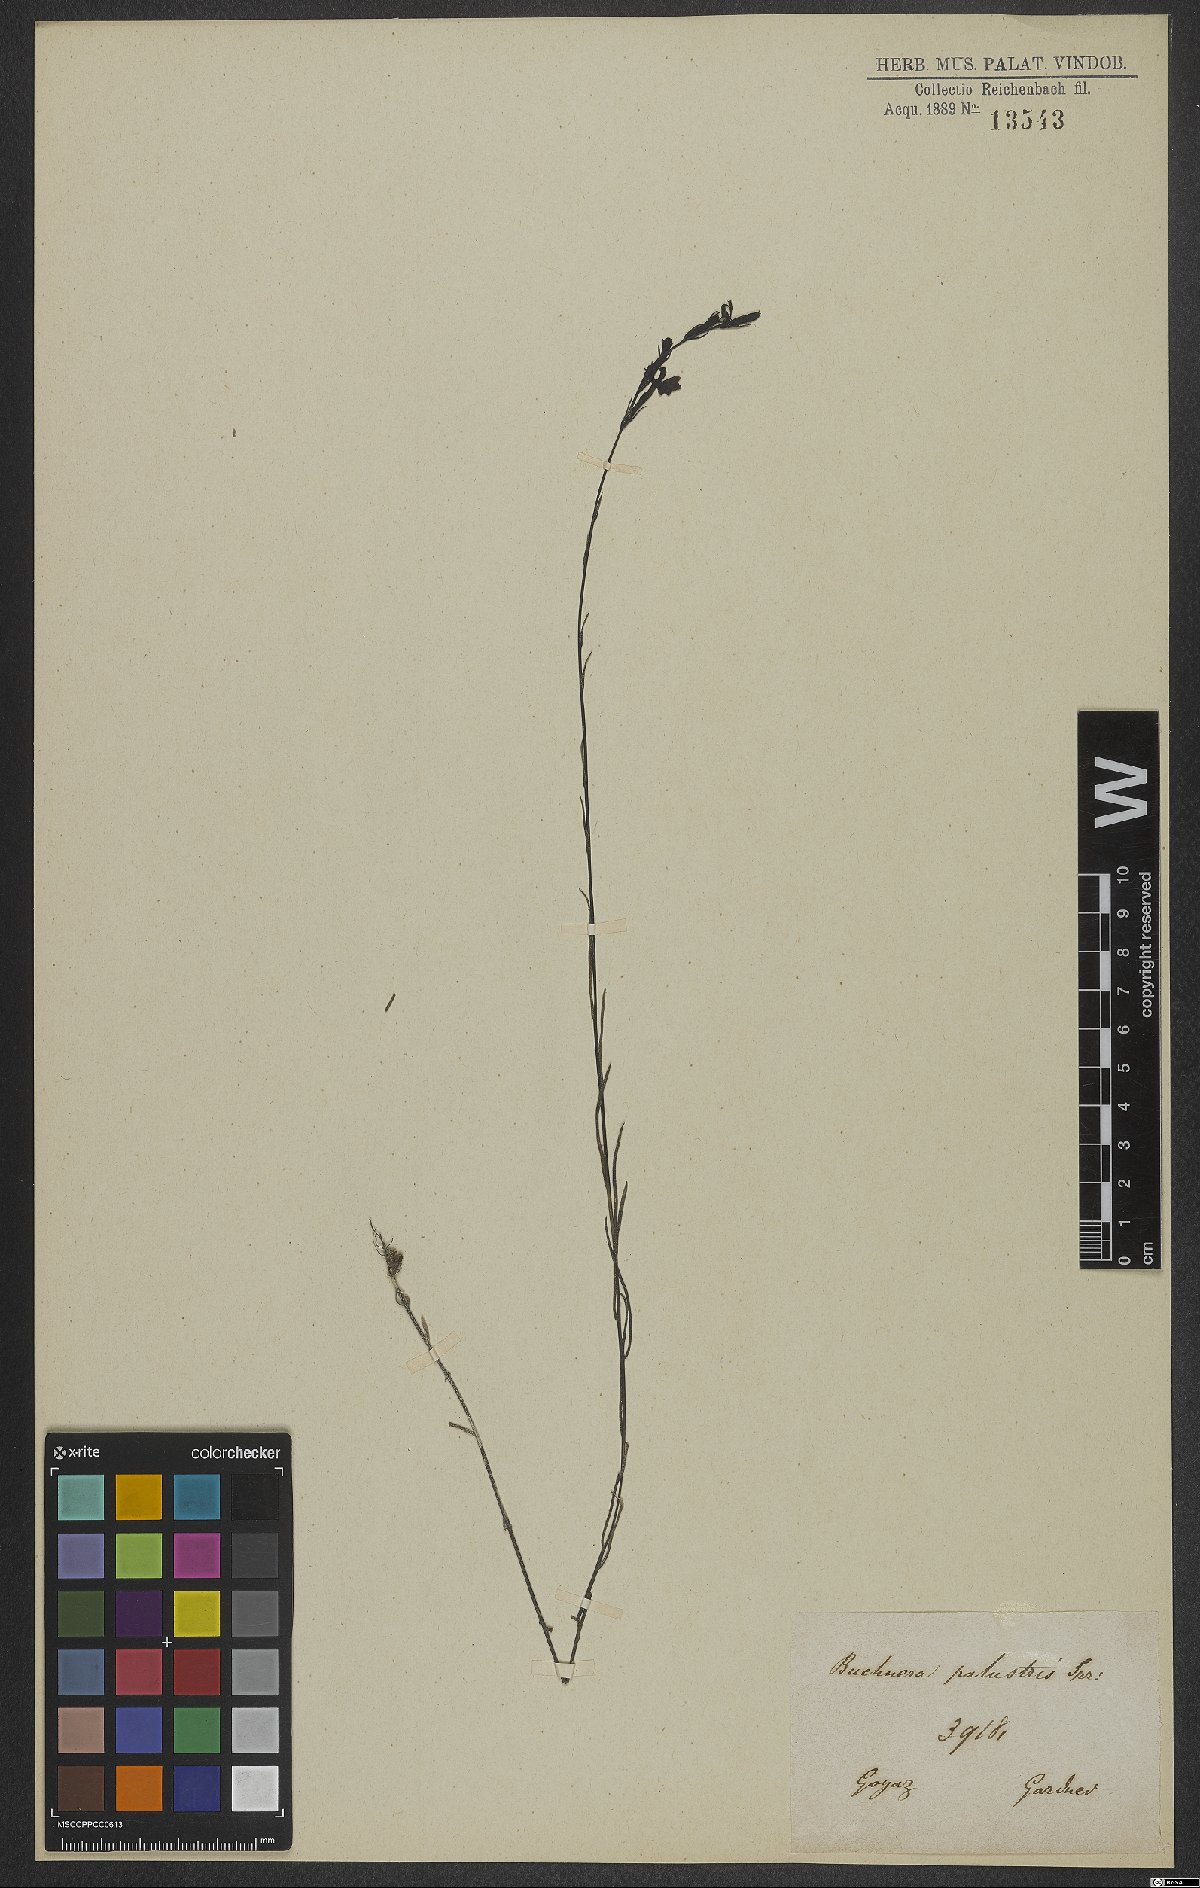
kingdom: Plantae
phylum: Tracheophyta
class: Magnoliopsida
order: Lamiales
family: Orobanchaceae
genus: Buchnera
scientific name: Buchnera palustris
